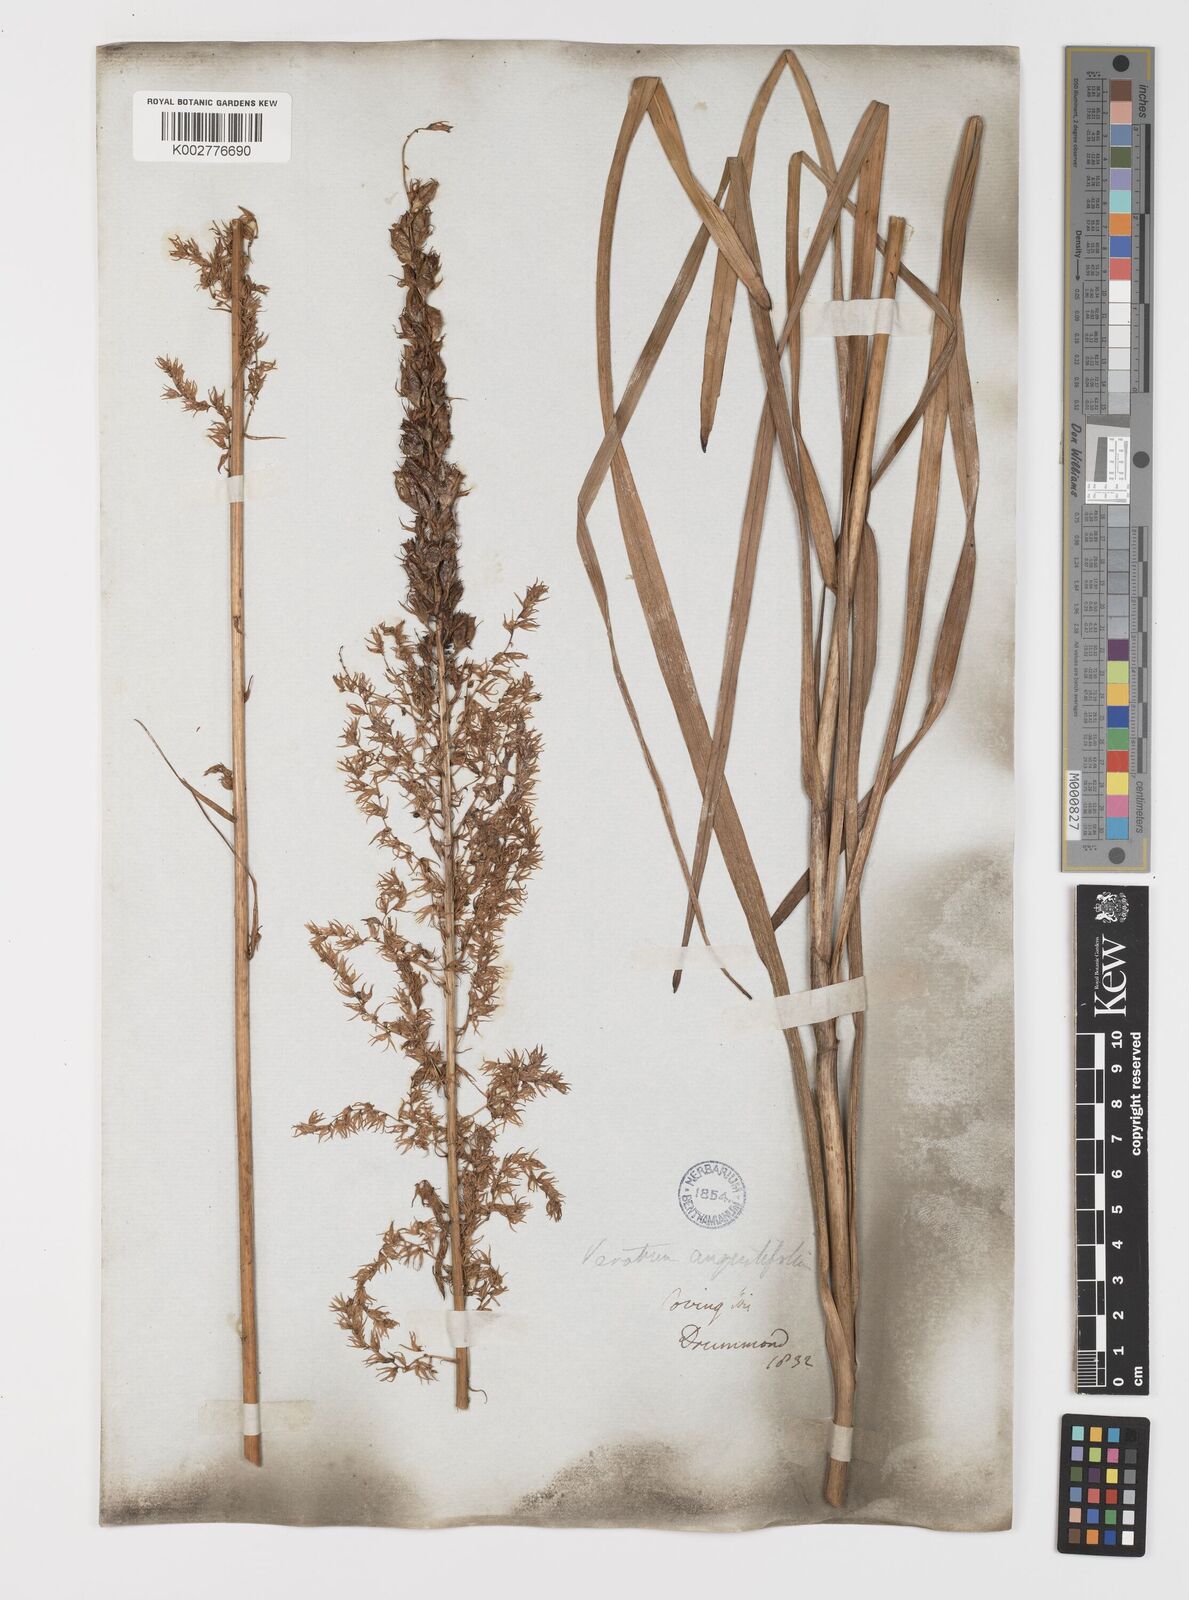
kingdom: Plantae
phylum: Tracheophyta
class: Liliopsida
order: Liliales
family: Melanthiaceae
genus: Stenanthium
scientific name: Stenanthium gramineum
